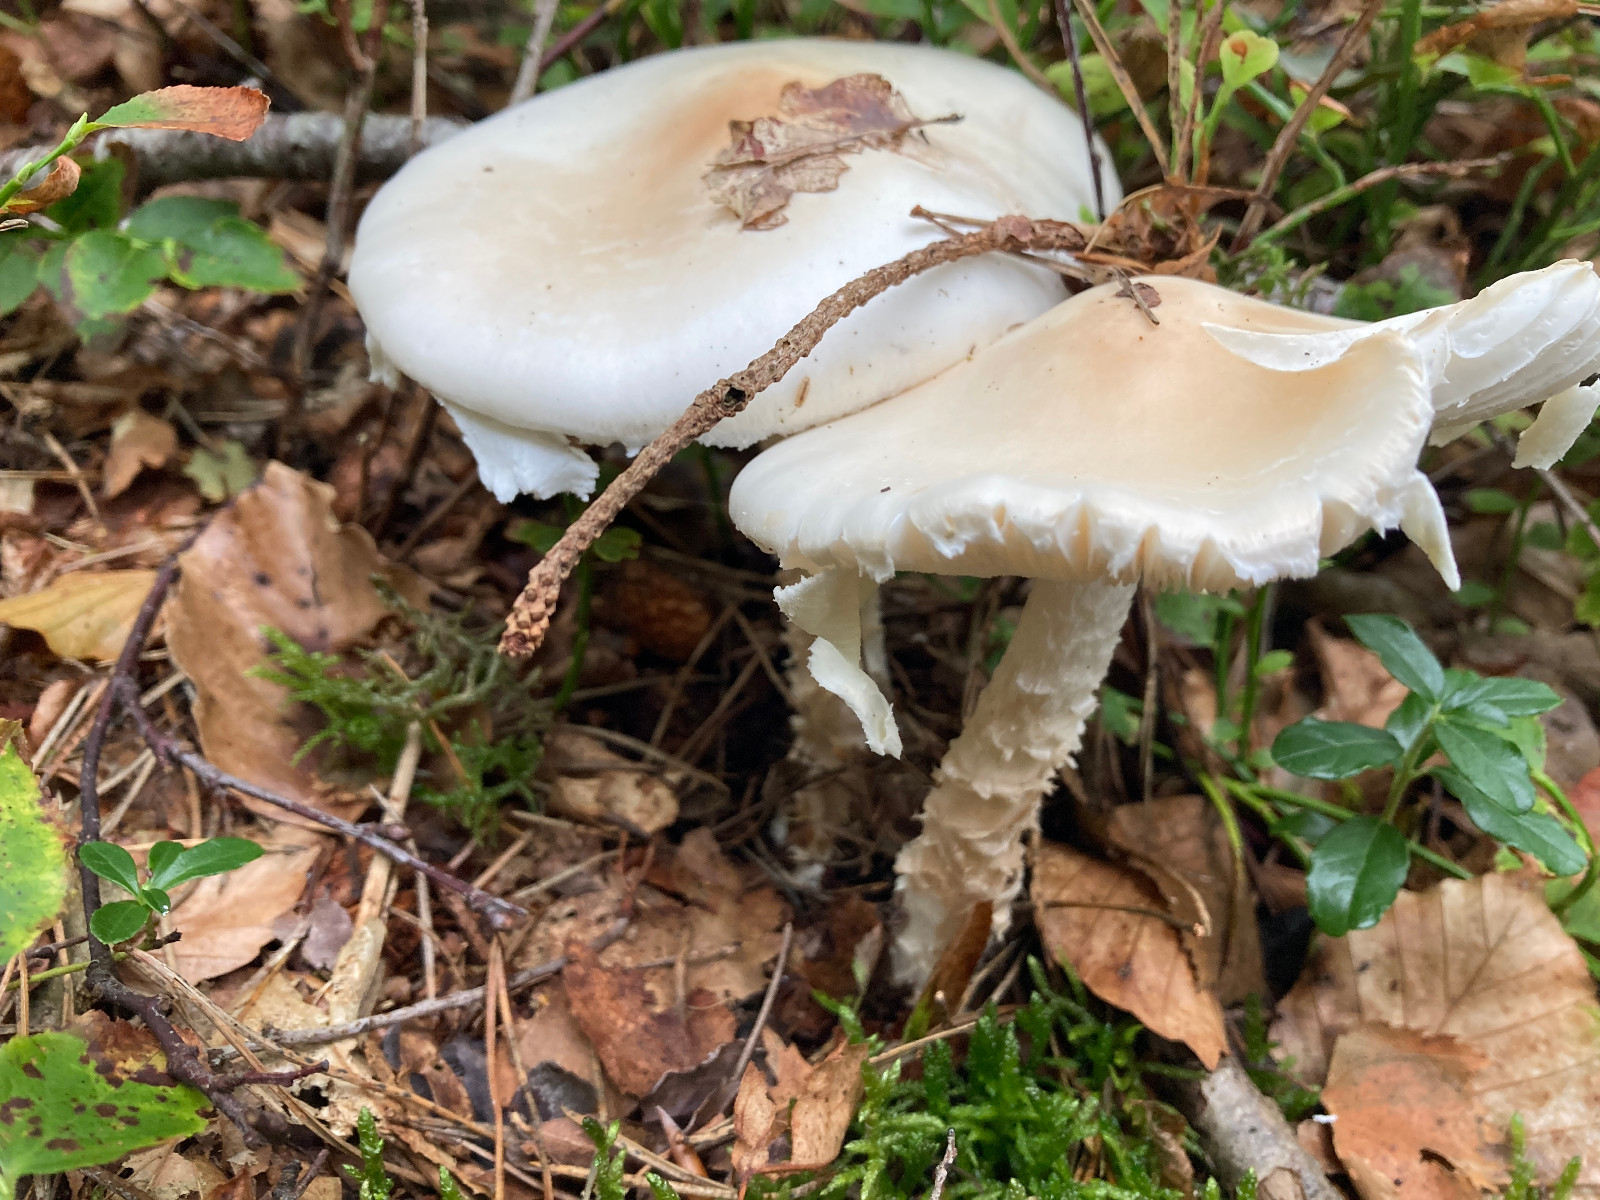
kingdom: Fungi
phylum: Basidiomycota
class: Agaricomycetes
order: Agaricales
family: Amanitaceae
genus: Amanita
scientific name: Amanita virosa
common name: snehvid fluesvamp
